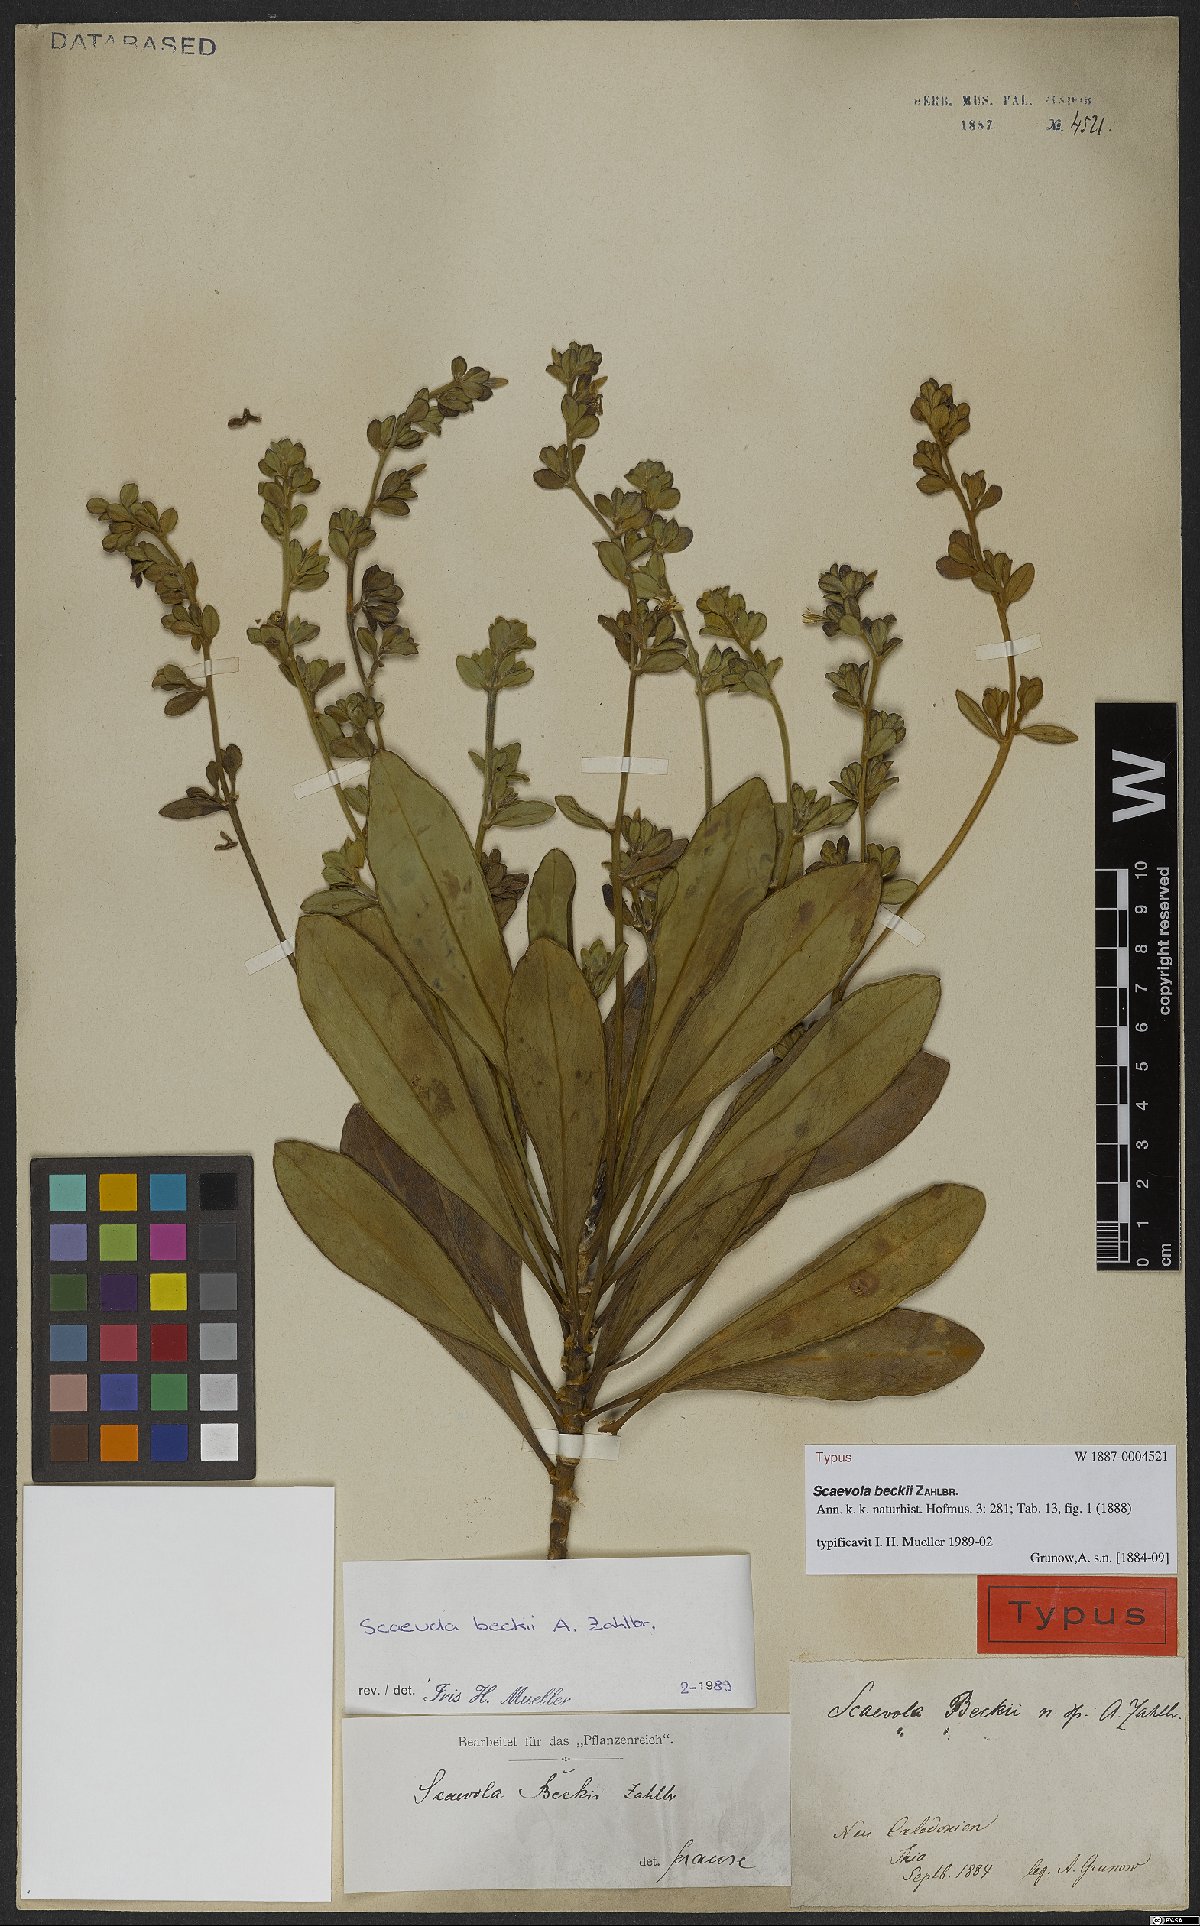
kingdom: Plantae
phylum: Tracheophyta
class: Magnoliopsida
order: Asterales
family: Goodeniaceae
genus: Scaevola
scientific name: Scaevola beckii
